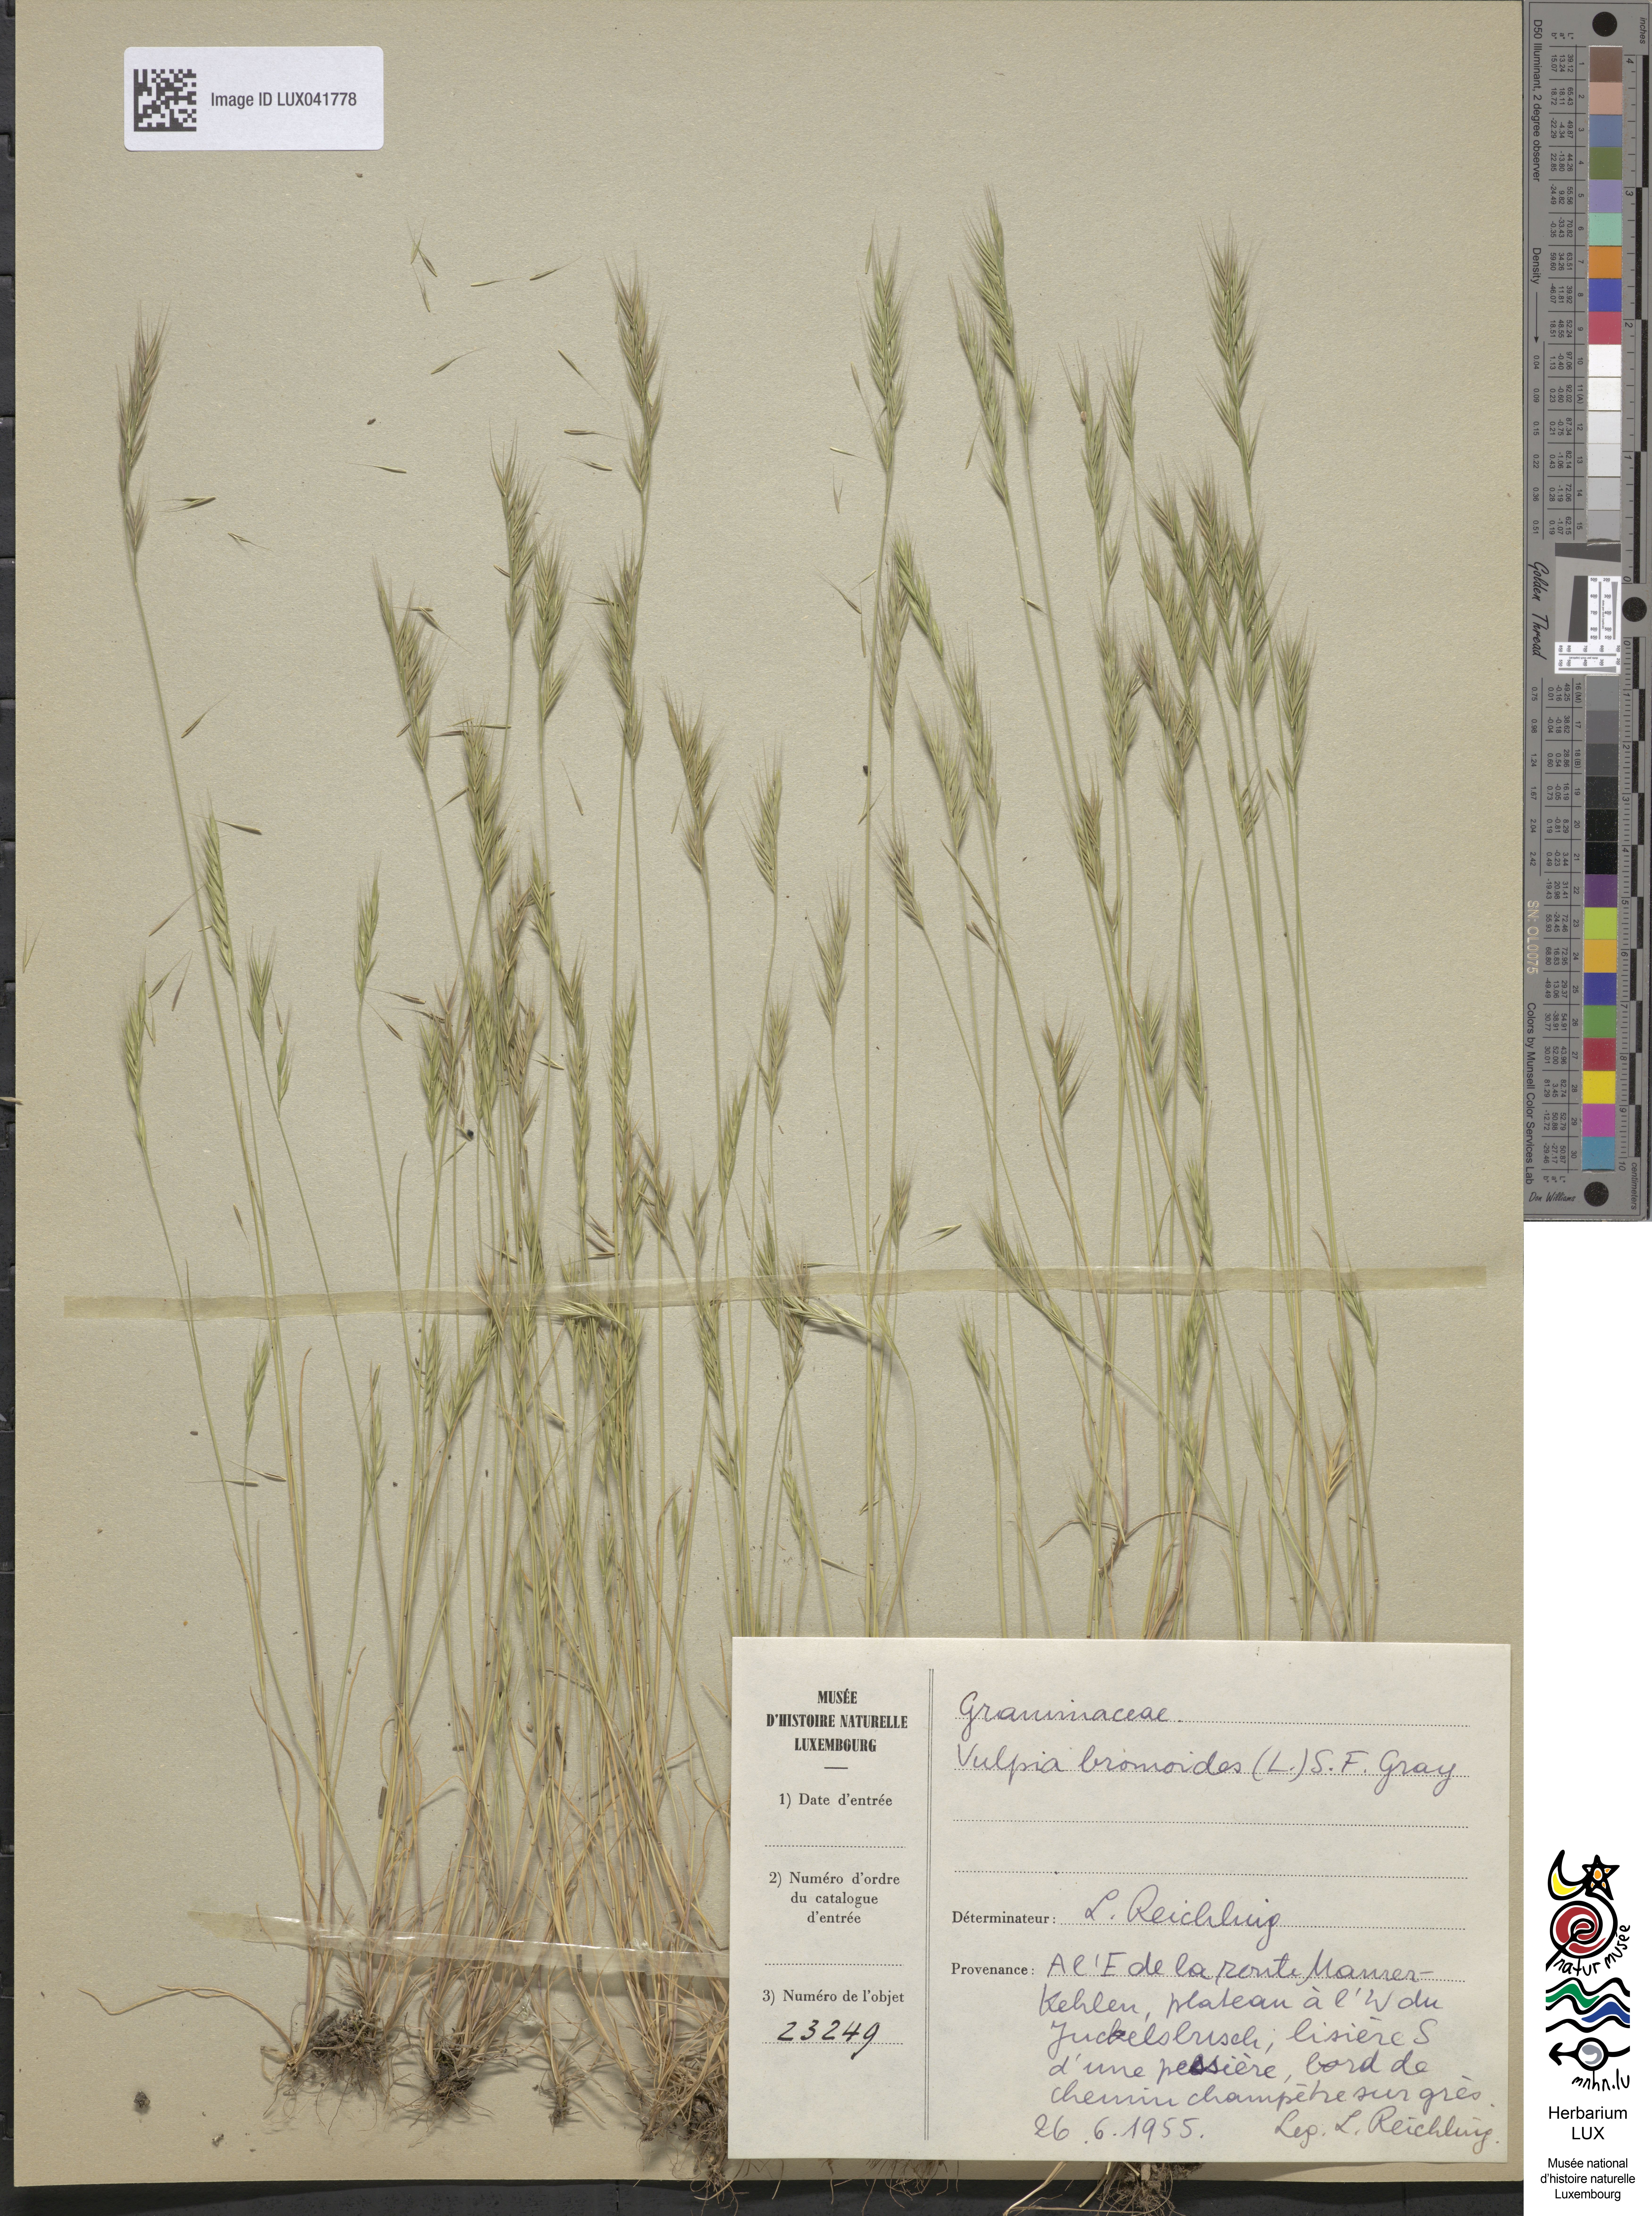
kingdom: Plantae
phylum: Tracheophyta
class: Liliopsida
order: Poales
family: Poaceae
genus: Festuca
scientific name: Festuca bromoides
